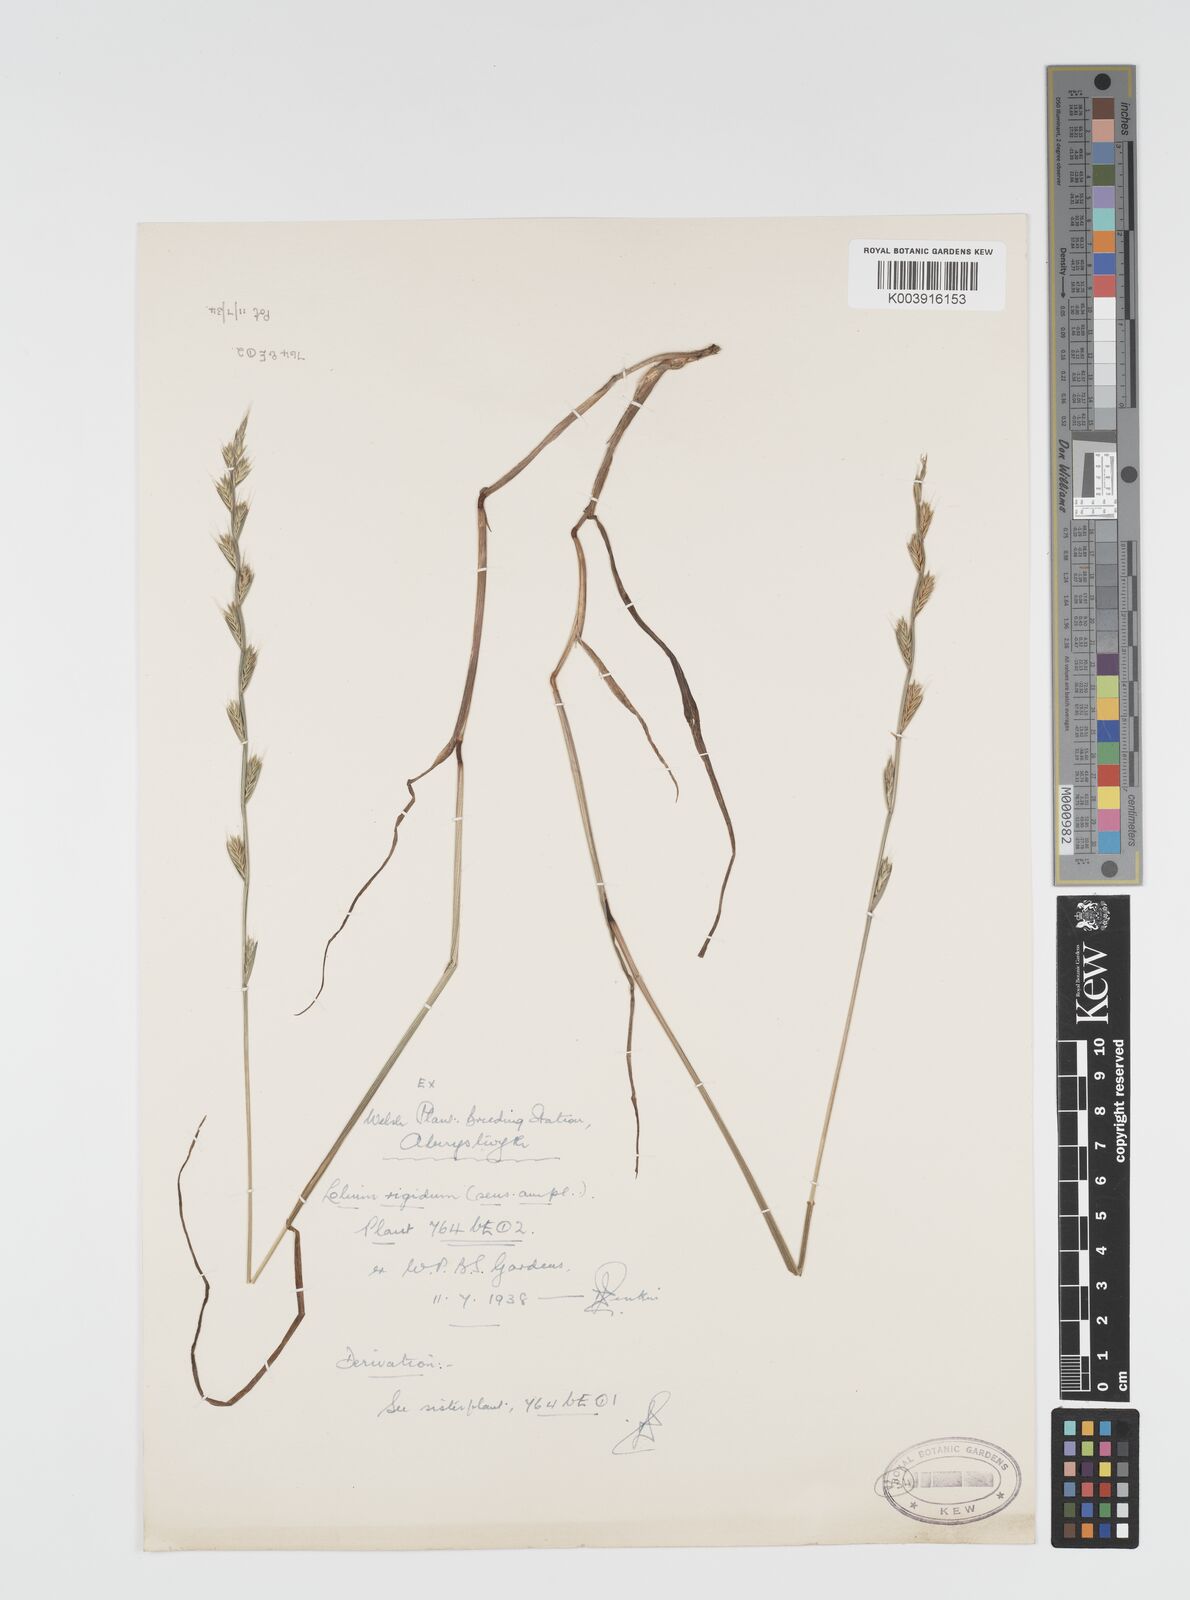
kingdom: Plantae
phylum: Tracheophyta
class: Liliopsida
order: Poales
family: Poaceae
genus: Lolium
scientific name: Lolium rigidum
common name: Wimmera ryegrass
